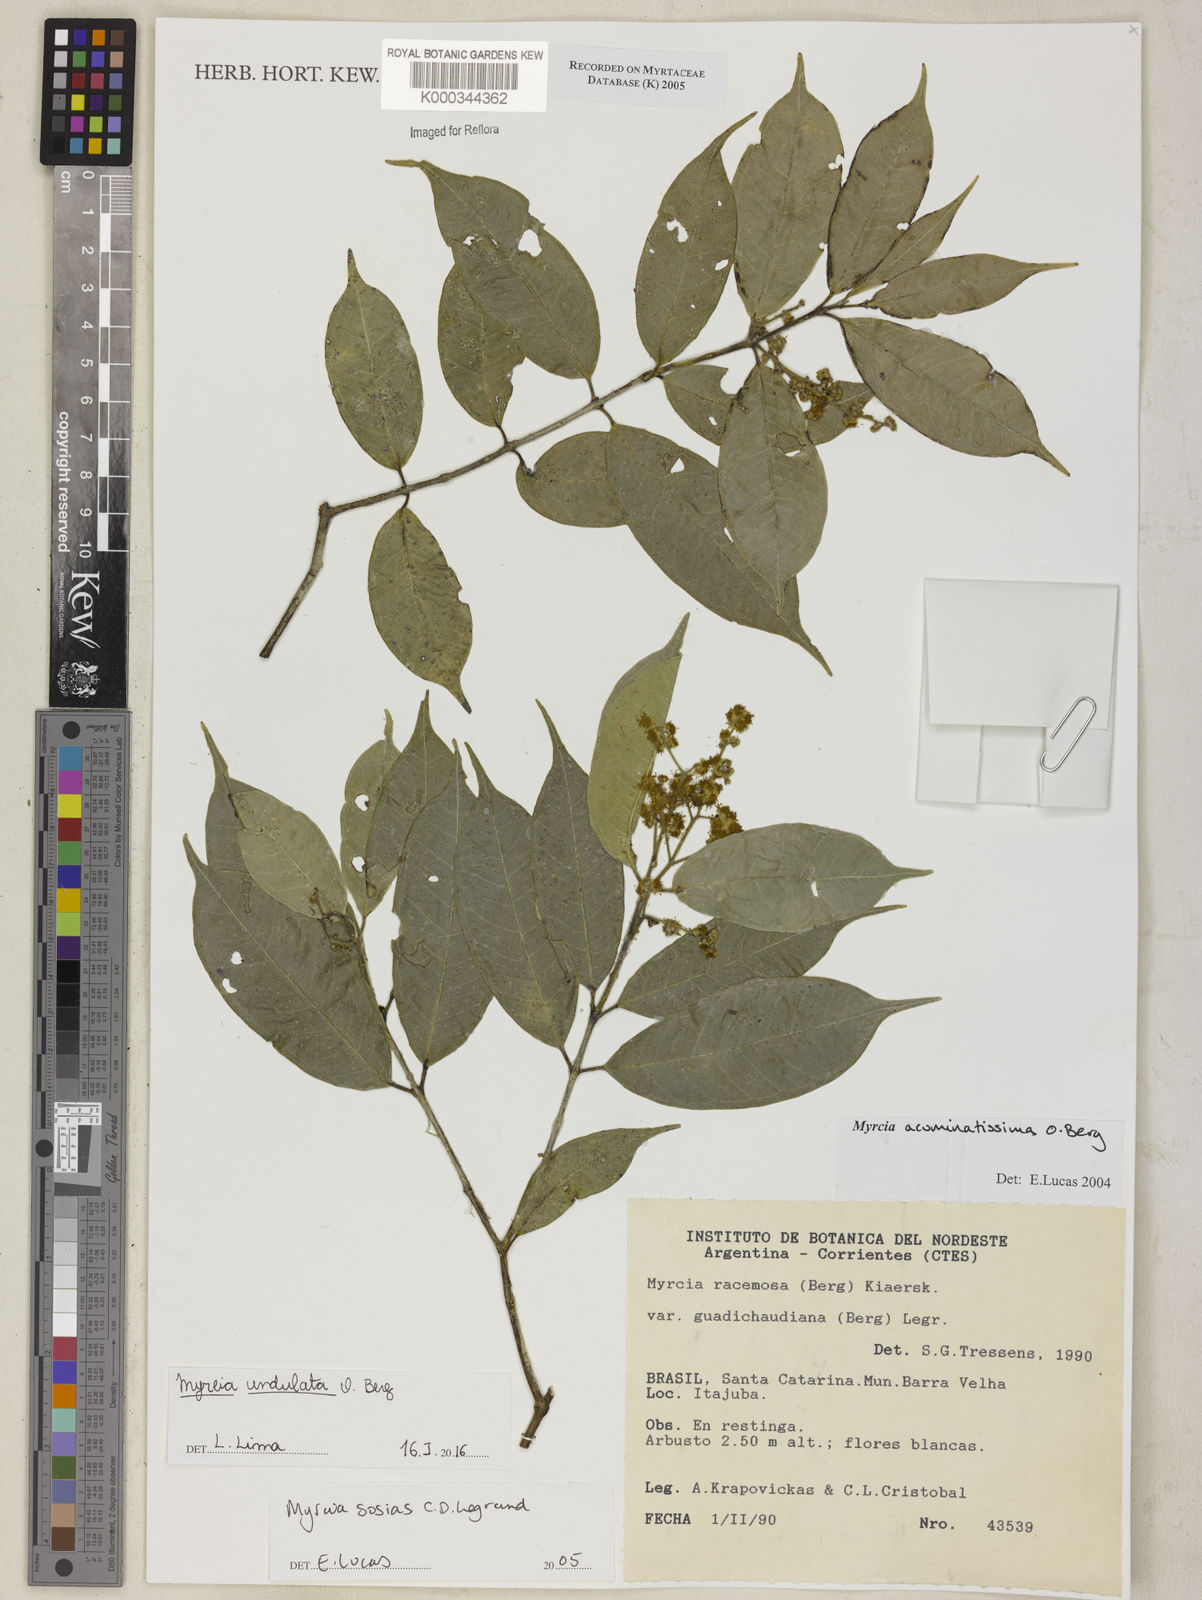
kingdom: Plantae
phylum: Tracheophyta
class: Magnoliopsida
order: Myrtales
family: Myrtaceae
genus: Myrcia
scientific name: Myrcia sosias
